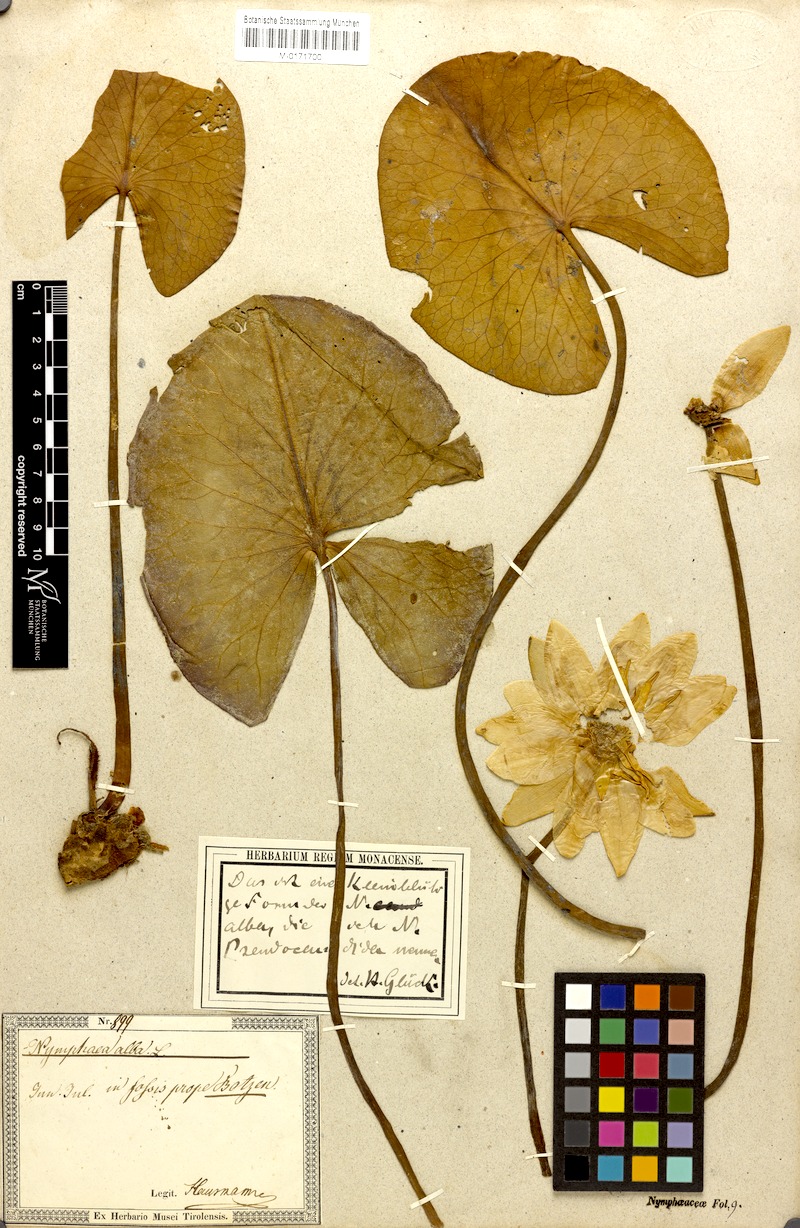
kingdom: Plantae
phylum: Tracheophyta
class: Magnoliopsida
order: Nymphaeales
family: Nymphaeaceae
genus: Nymphaea
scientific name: Nymphaea alba
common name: White water-lily
